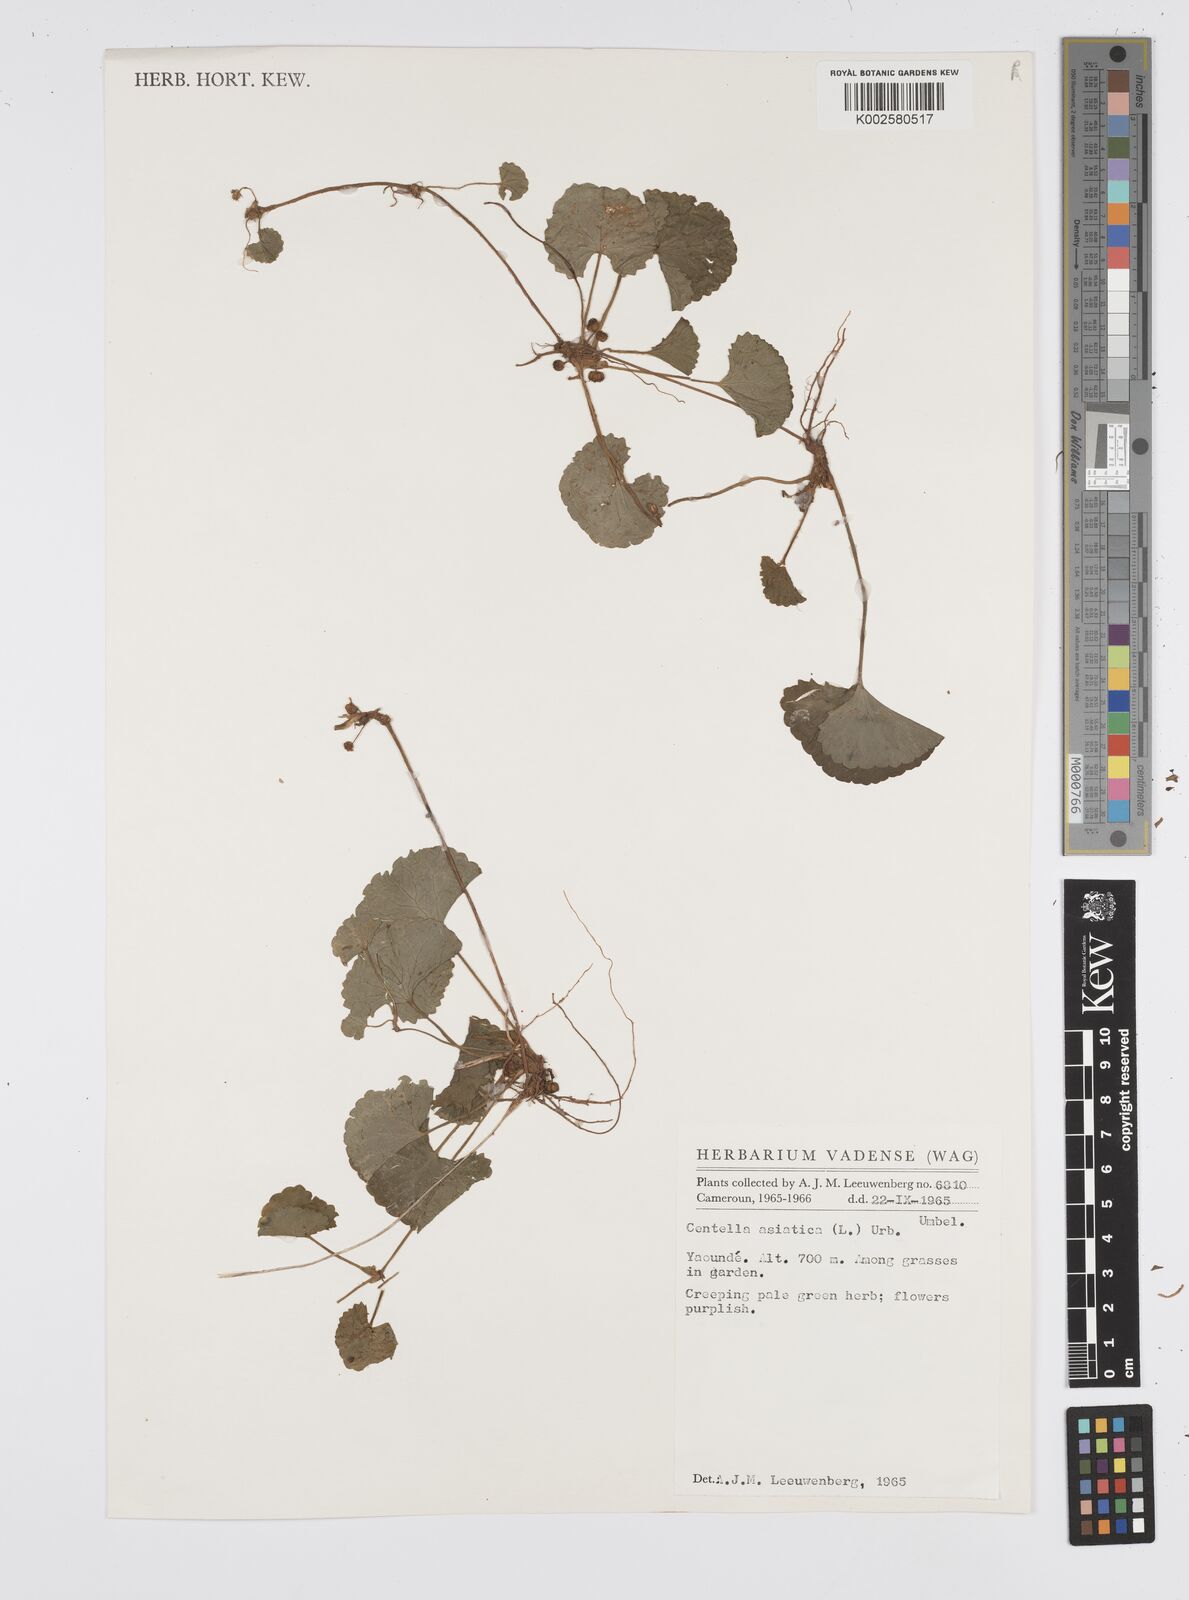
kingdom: Plantae
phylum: Tracheophyta
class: Magnoliopsida
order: Apiales
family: Apiaceae
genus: Centella
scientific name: Centella asiatica
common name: Spadeleaf
